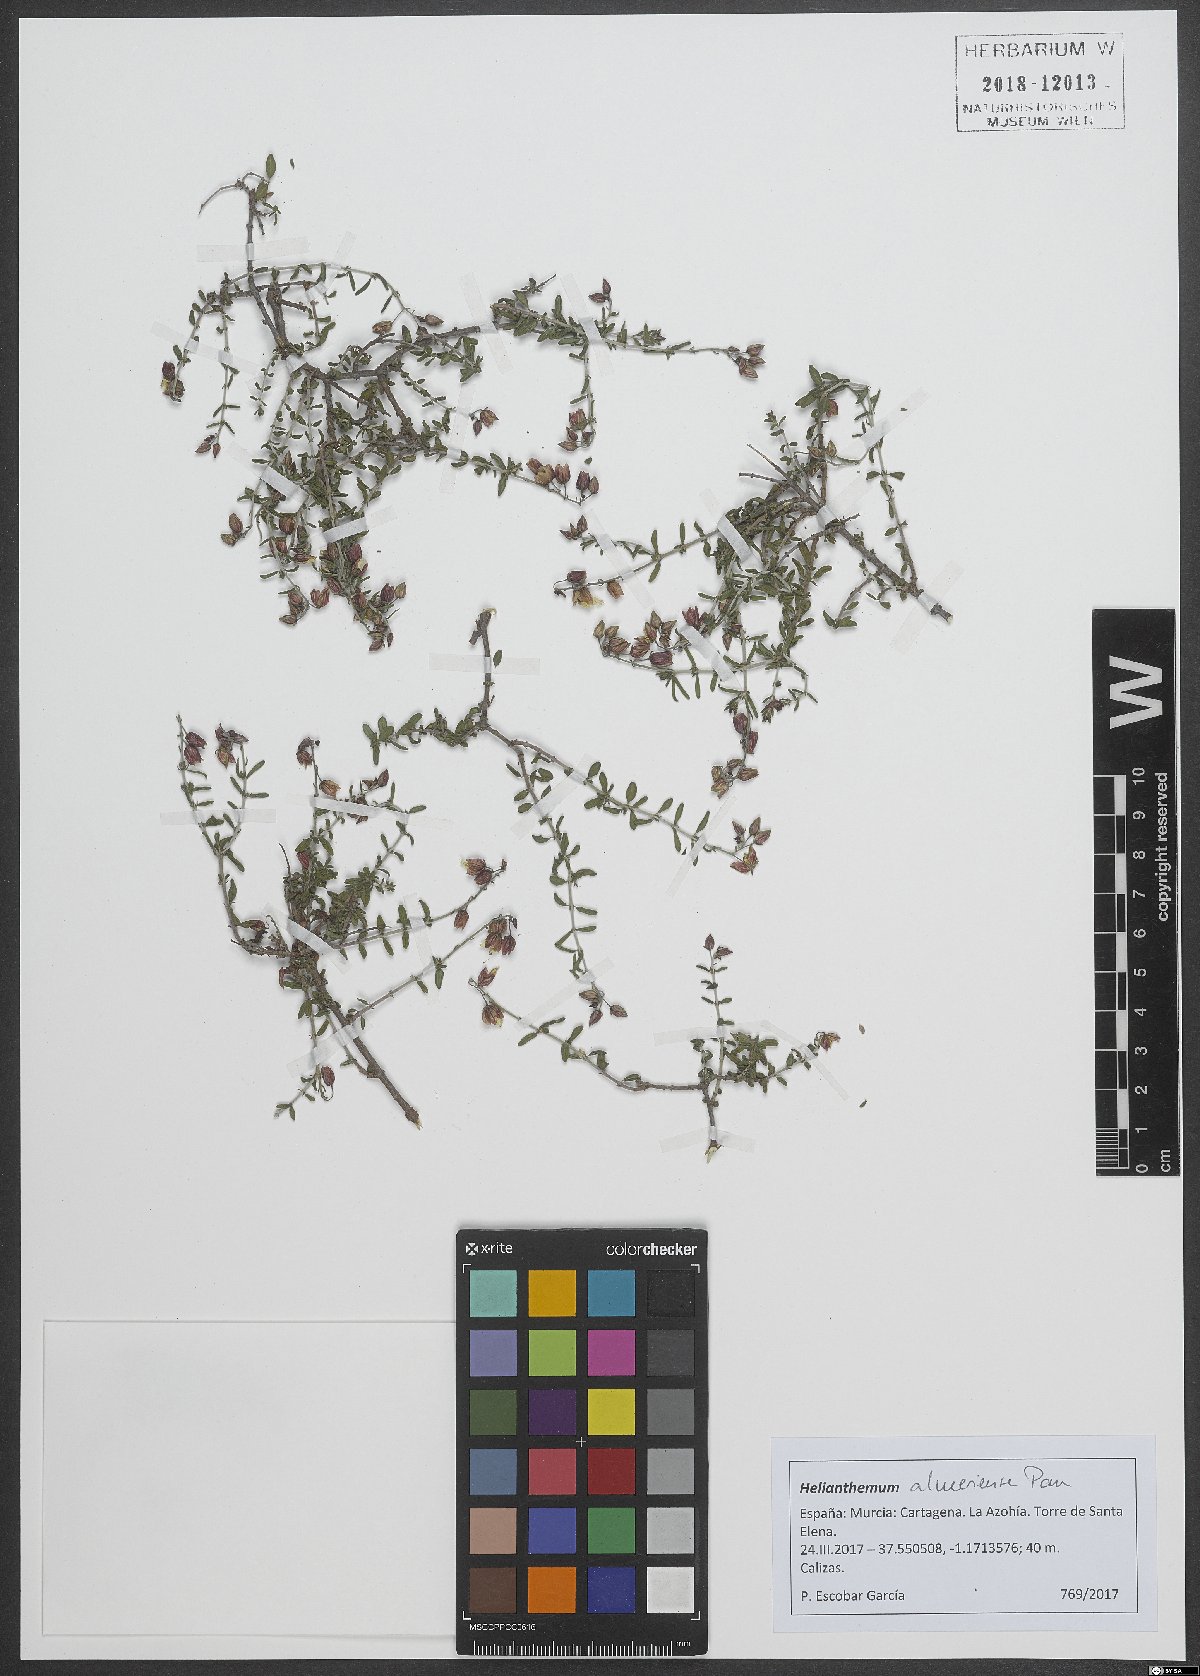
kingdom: Plantae
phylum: Tracheophyta
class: Magnoliopsida
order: Malvales
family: Cistaceae
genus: Helianthemum
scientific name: Helianthemum almeriense
